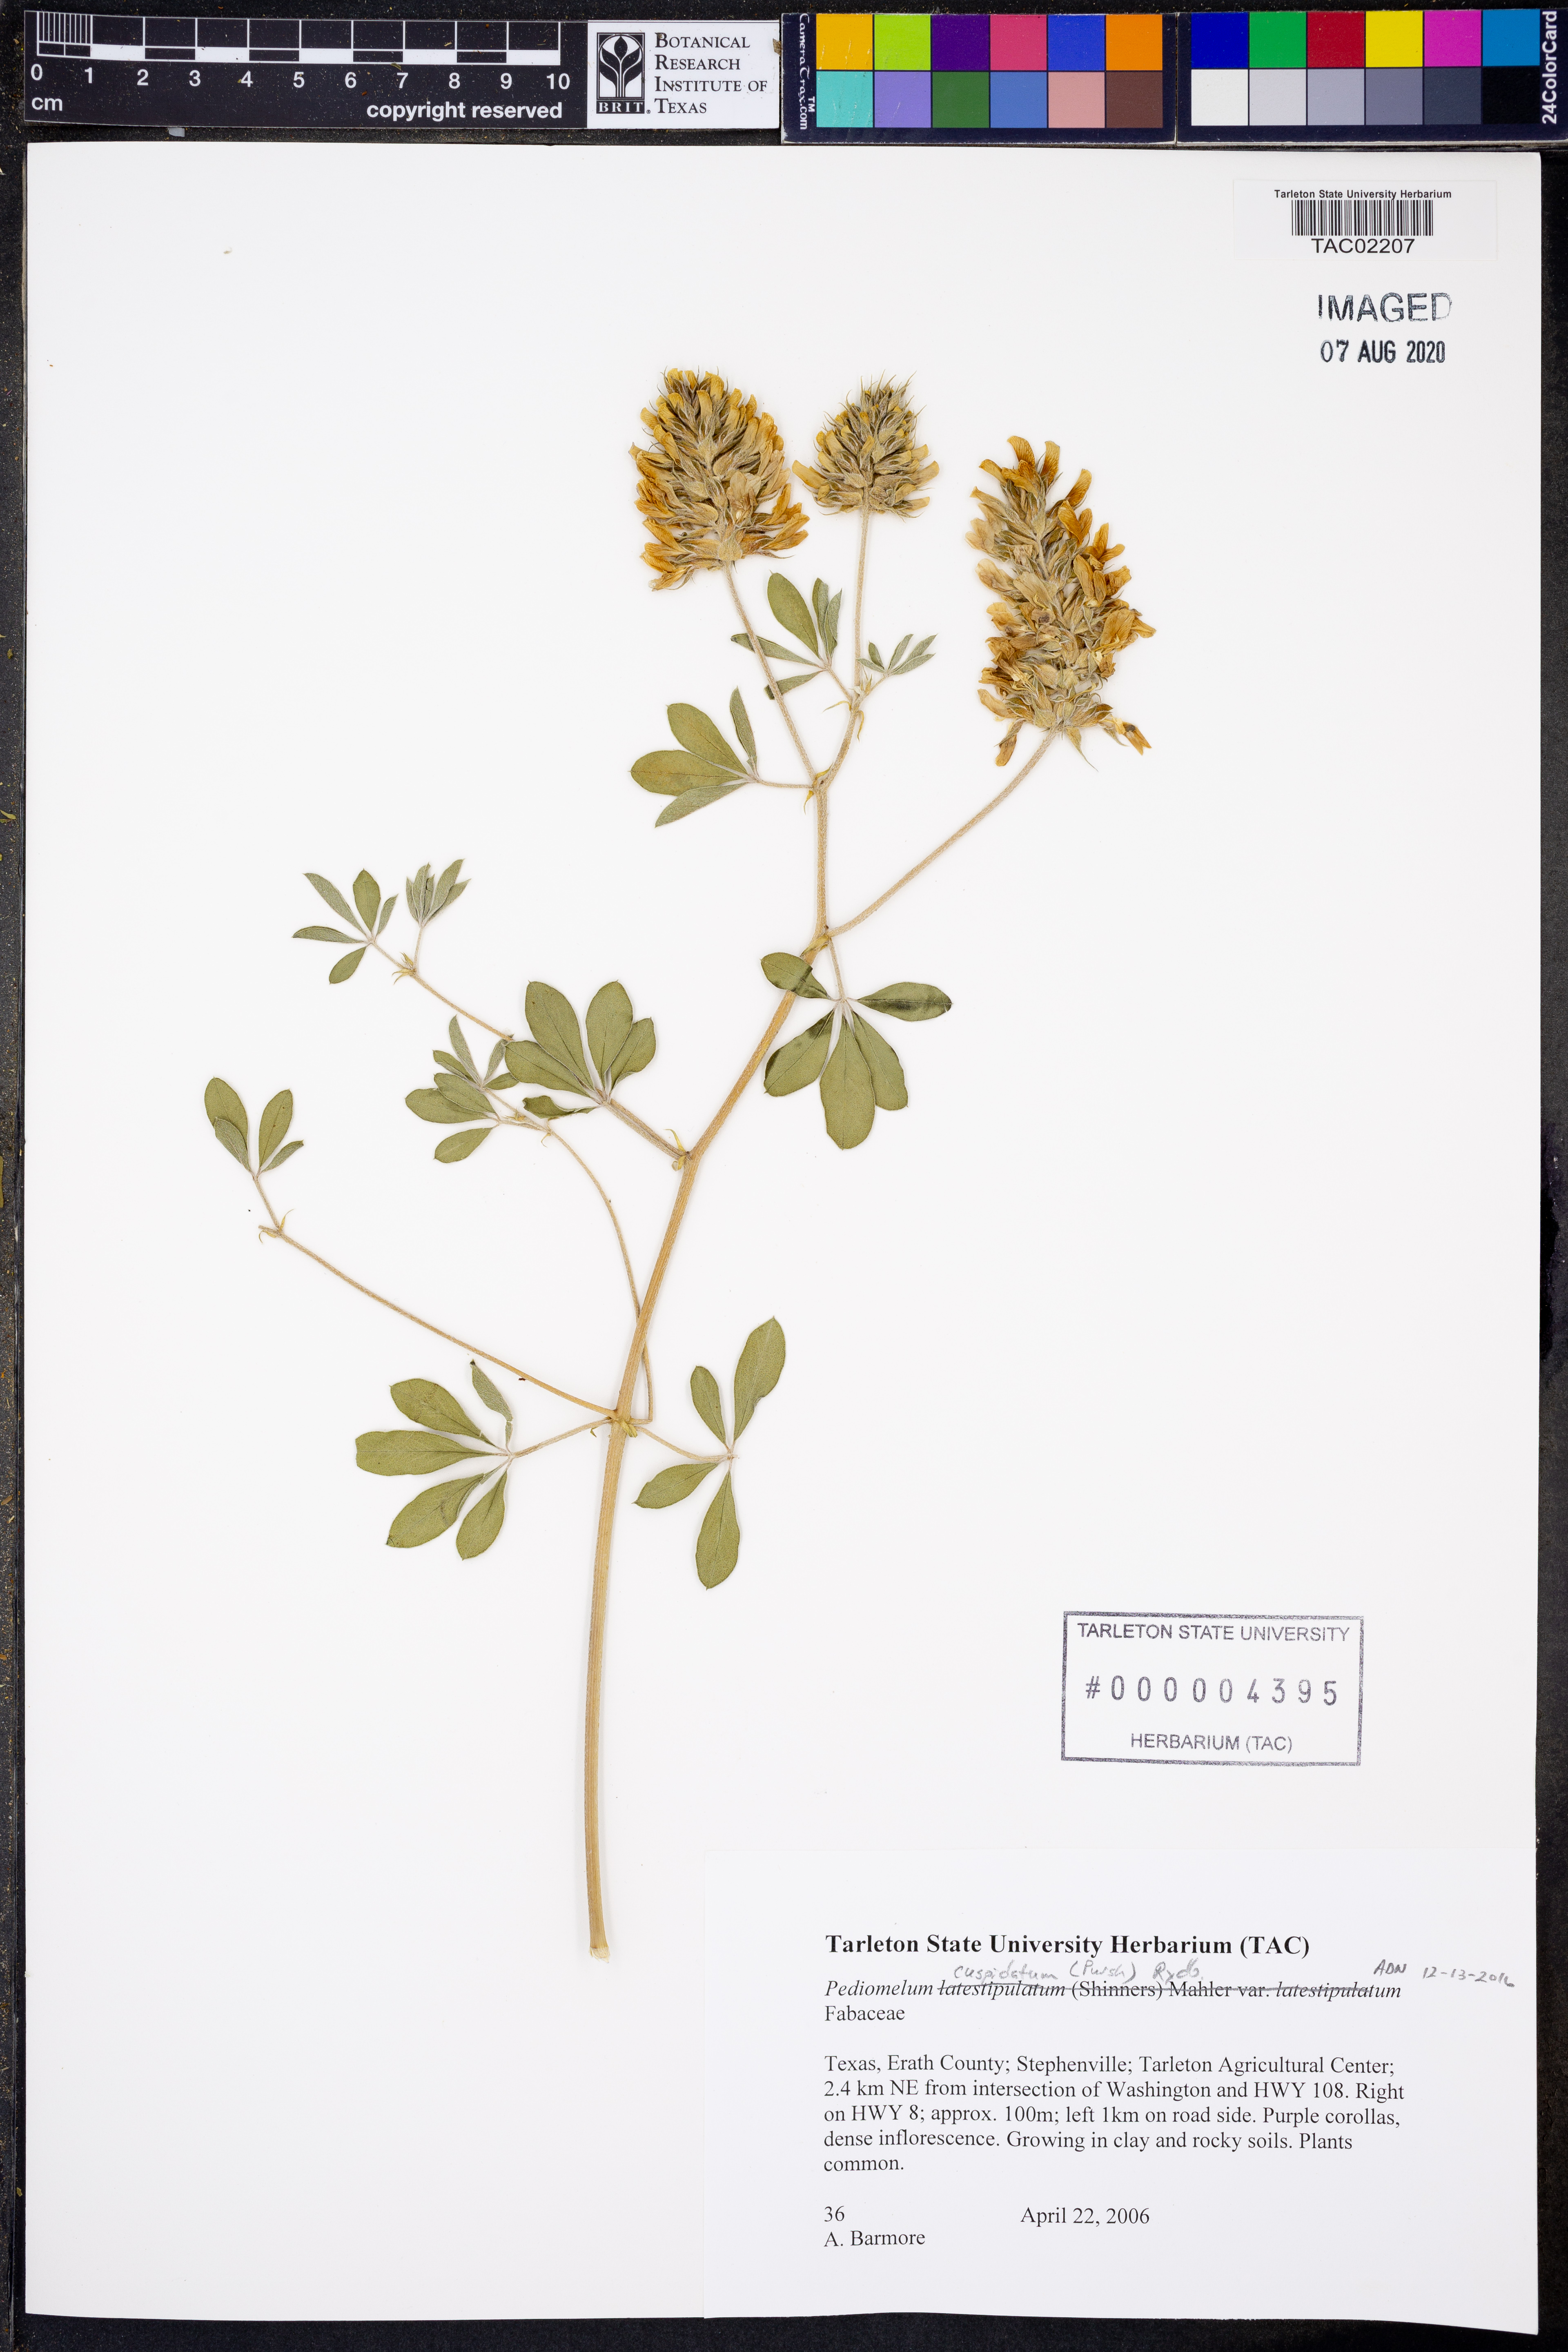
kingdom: Plantae
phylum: Tracheophyta
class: Magnoliopsida
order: Fabales
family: Fabaceae
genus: Pediomelum
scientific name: Pediomelum cuspidatum
